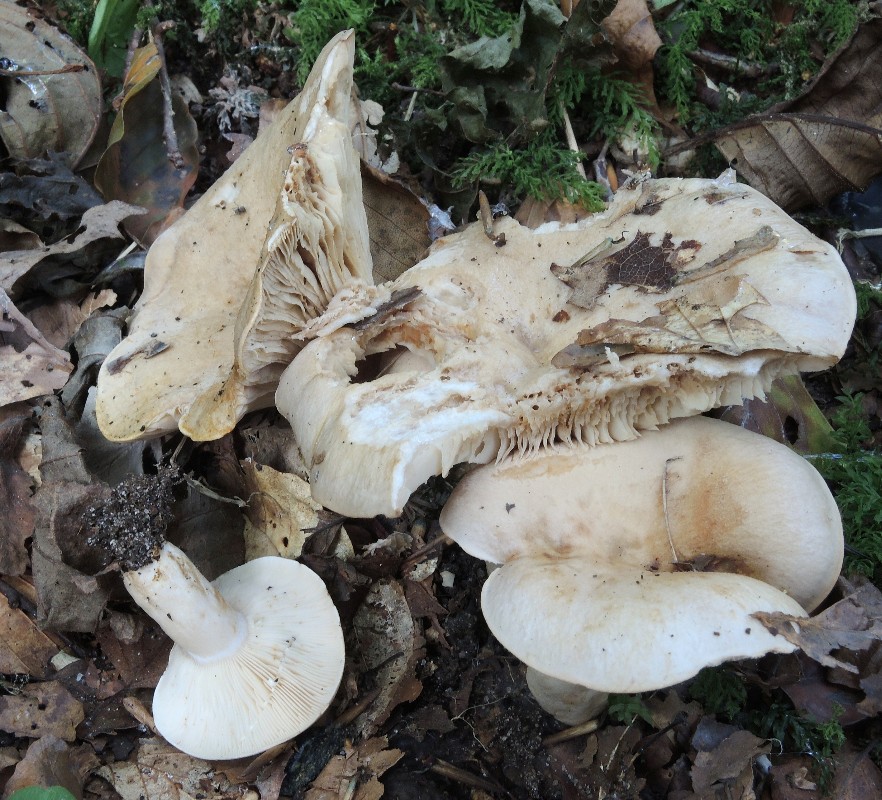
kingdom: Fungi
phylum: Basidiomycota
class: Agaricomycetes
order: Russulales
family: Russulaceae
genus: Lactarius
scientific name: Lactarius pallidus
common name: bleg mælkehat
